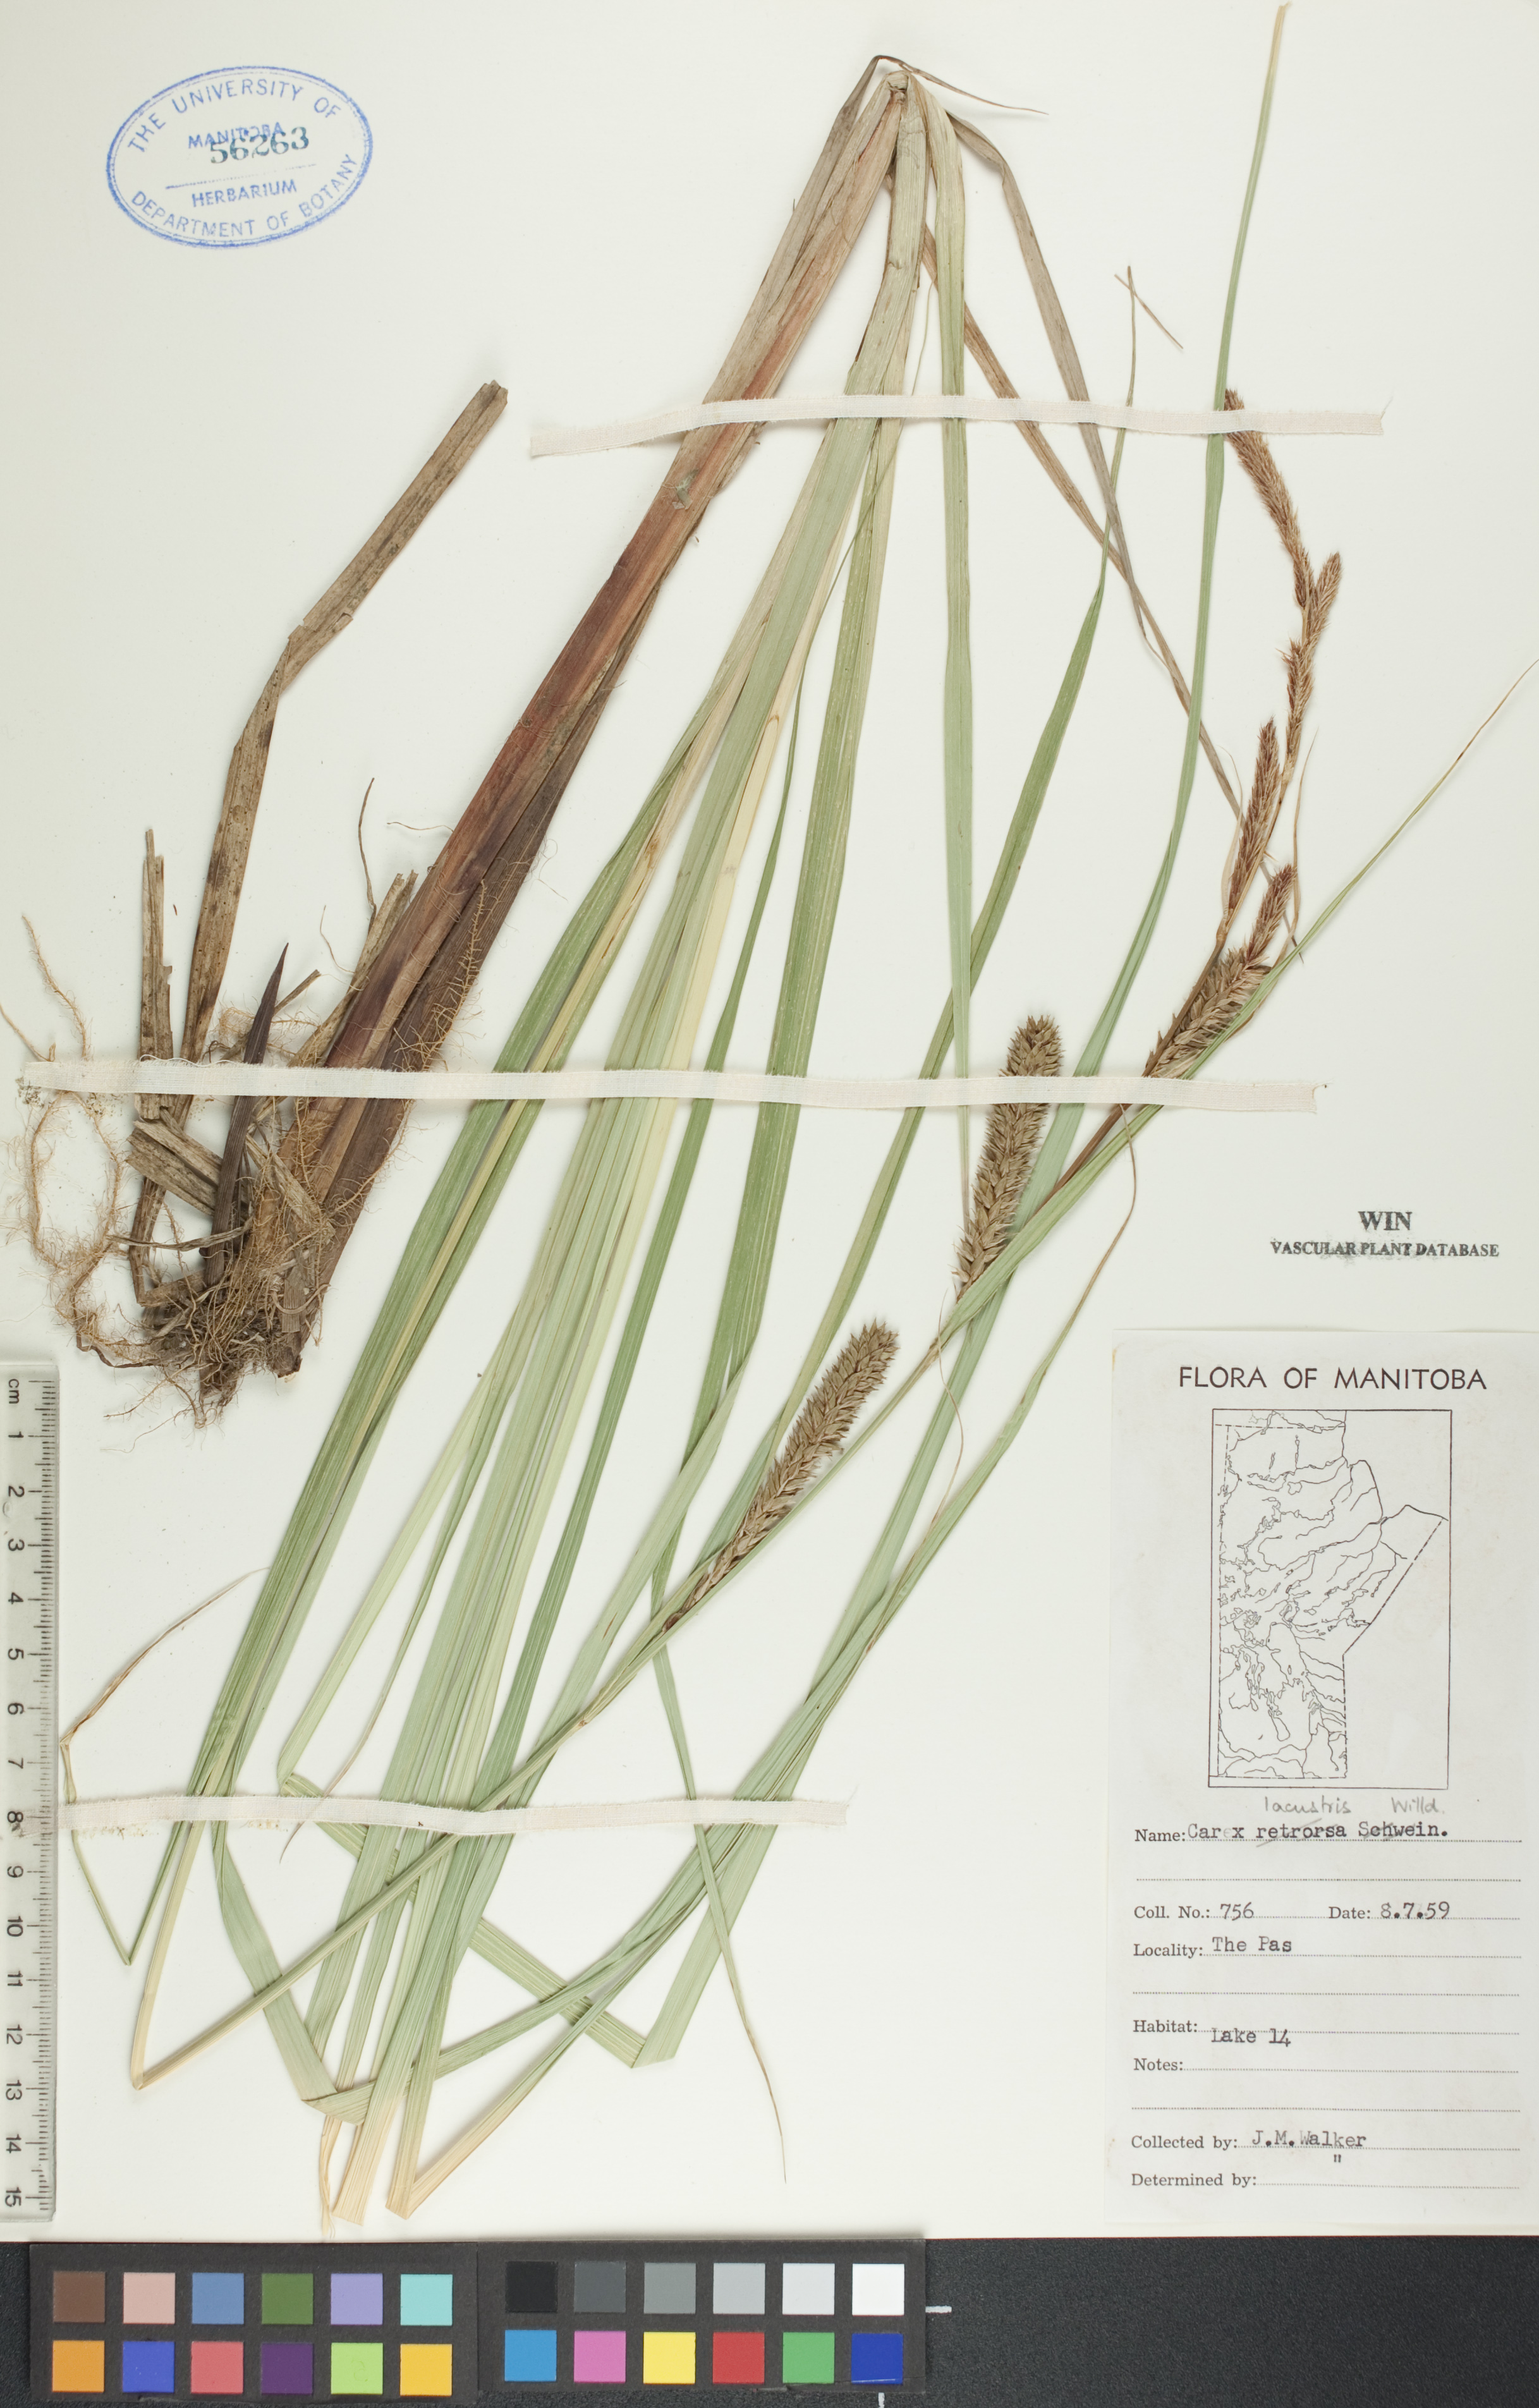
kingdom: Plantae
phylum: Tracheophyta
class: Liliopsida
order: Poales
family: Cyperaceae
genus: Carex
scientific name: Carex lacustris
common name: Common lake sedge
